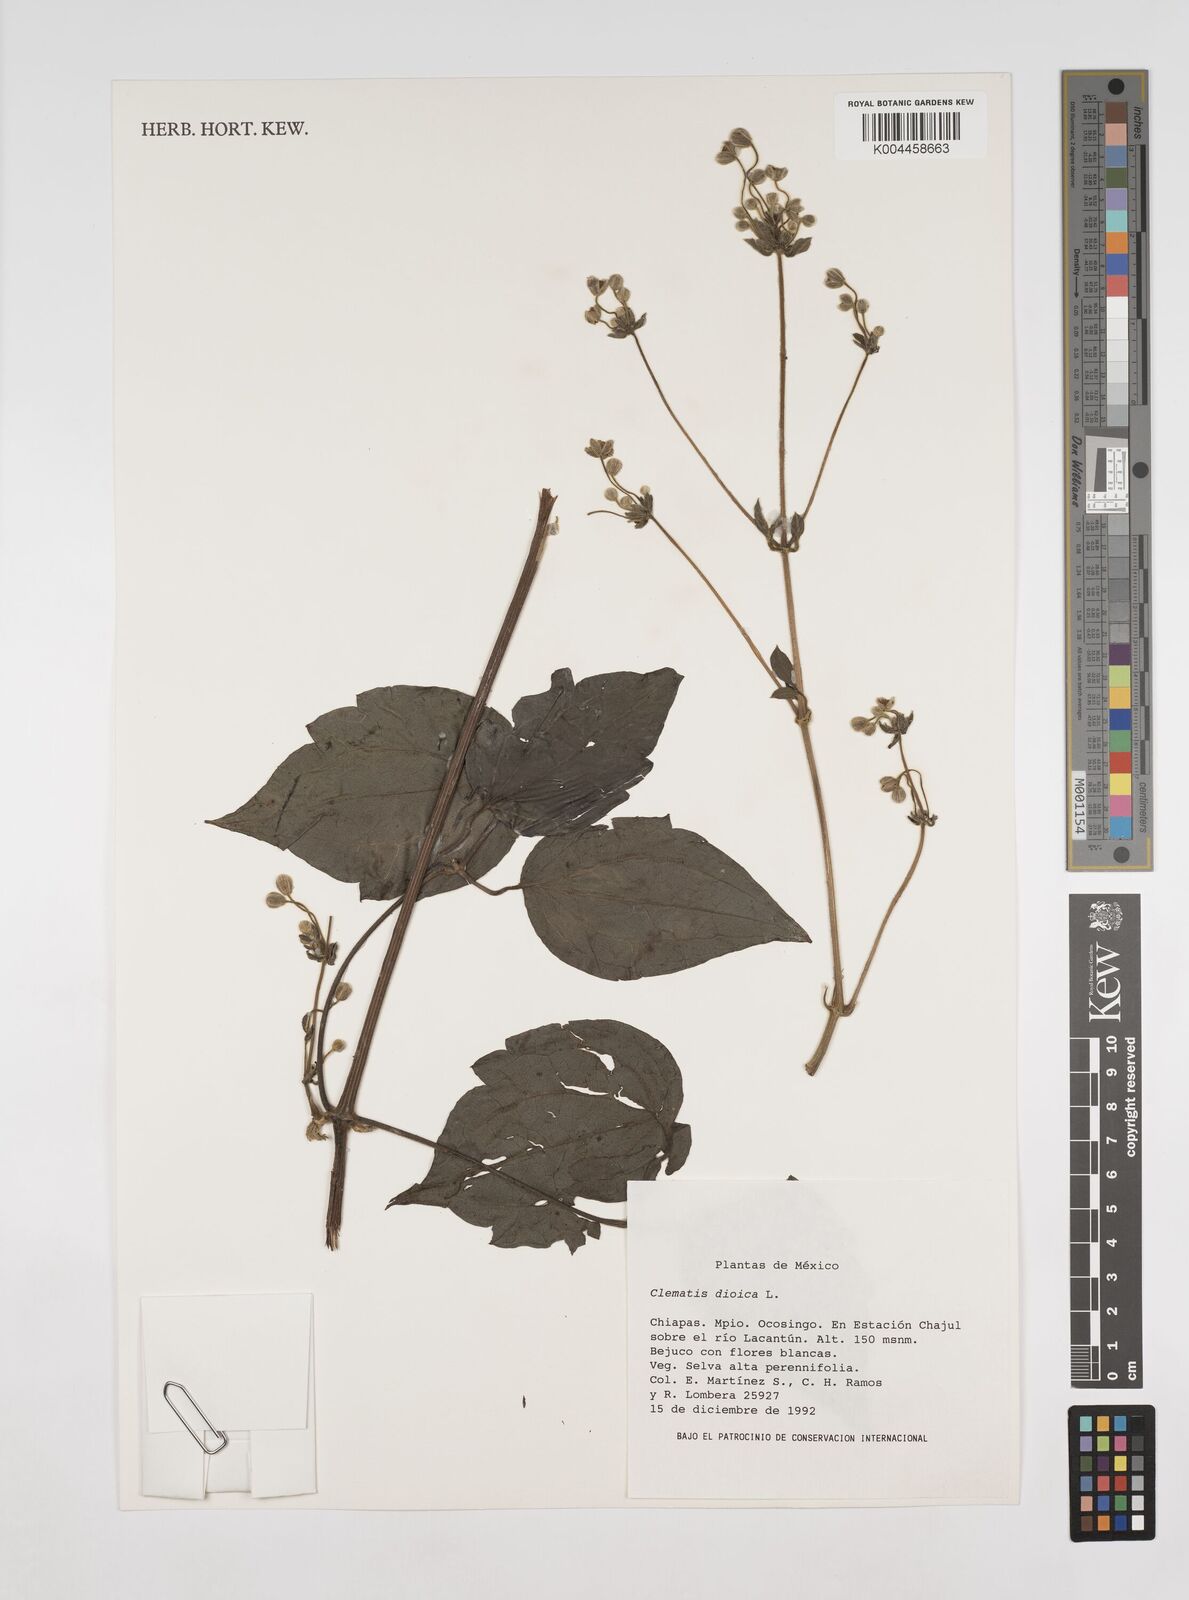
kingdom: Plantae
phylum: Tracheophyta
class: Magnoliopsida
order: Ranunculales
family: Ranunculaceae
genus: Clematis
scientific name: Clematis dioica
